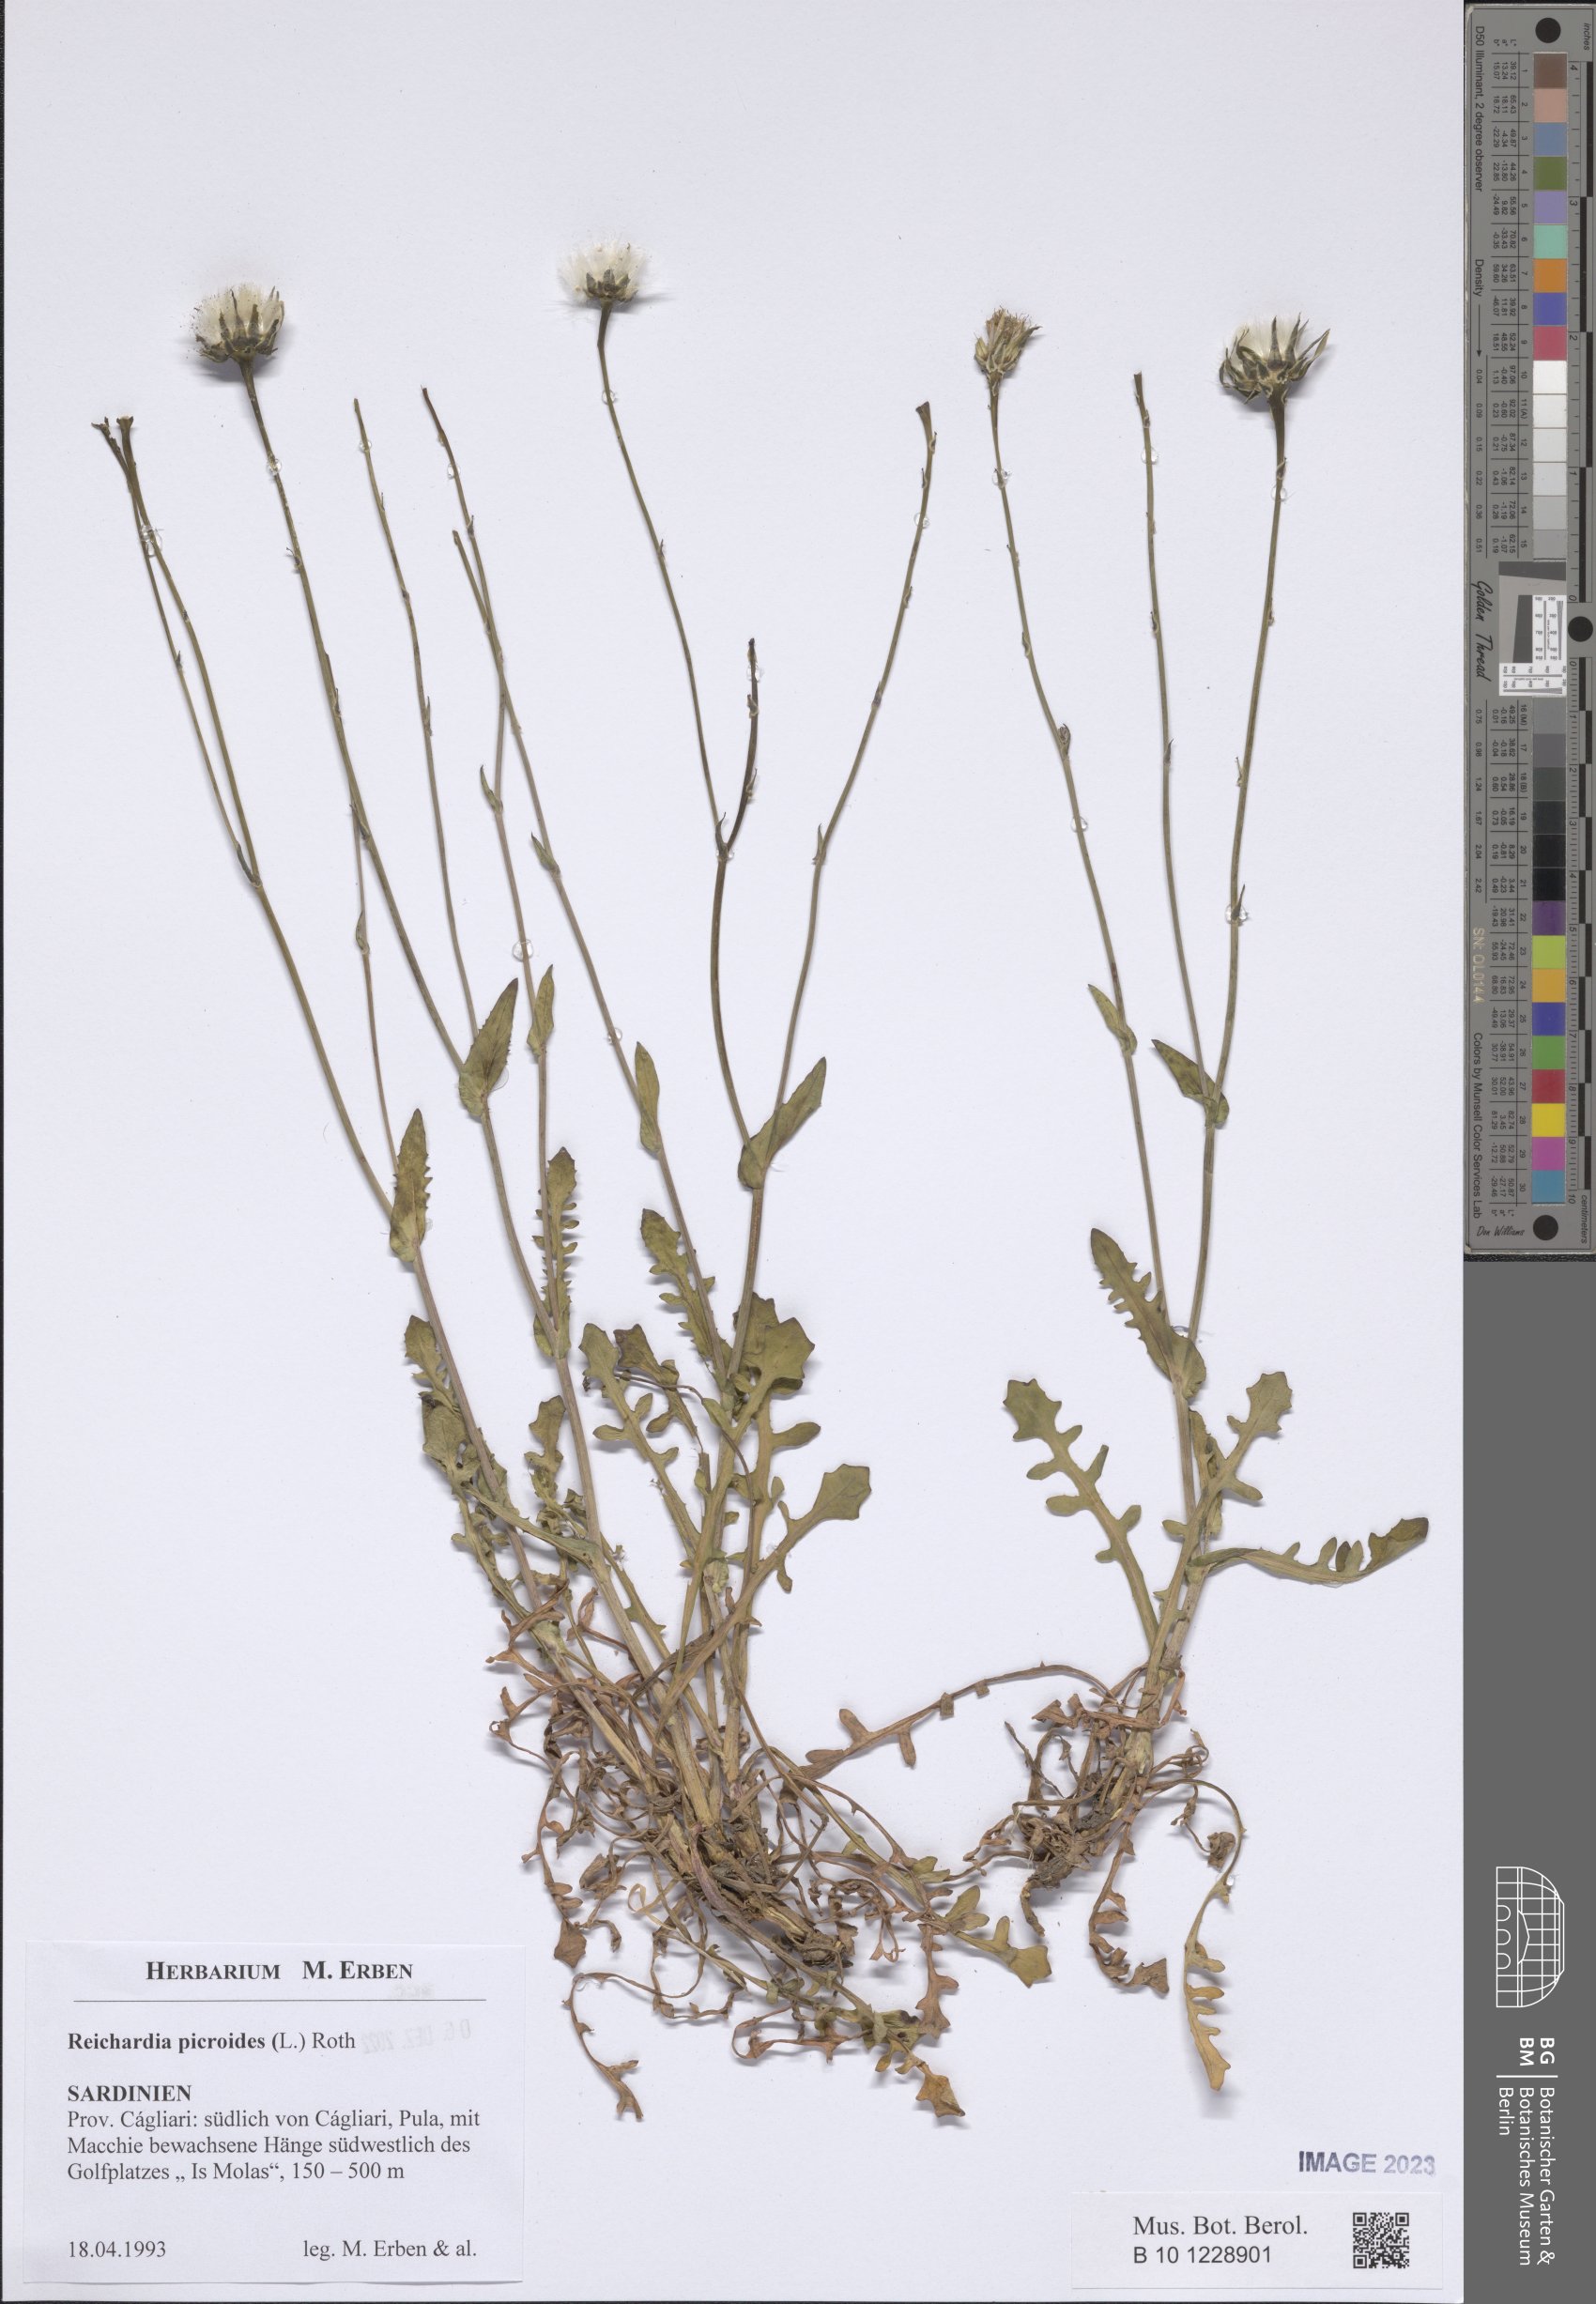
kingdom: Plantae
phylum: Tracheophyta
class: Magnoliopsida
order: Asterales
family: Asteraceae
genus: Reichardia
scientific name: Reichardia picroides
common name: Common brighteyes
